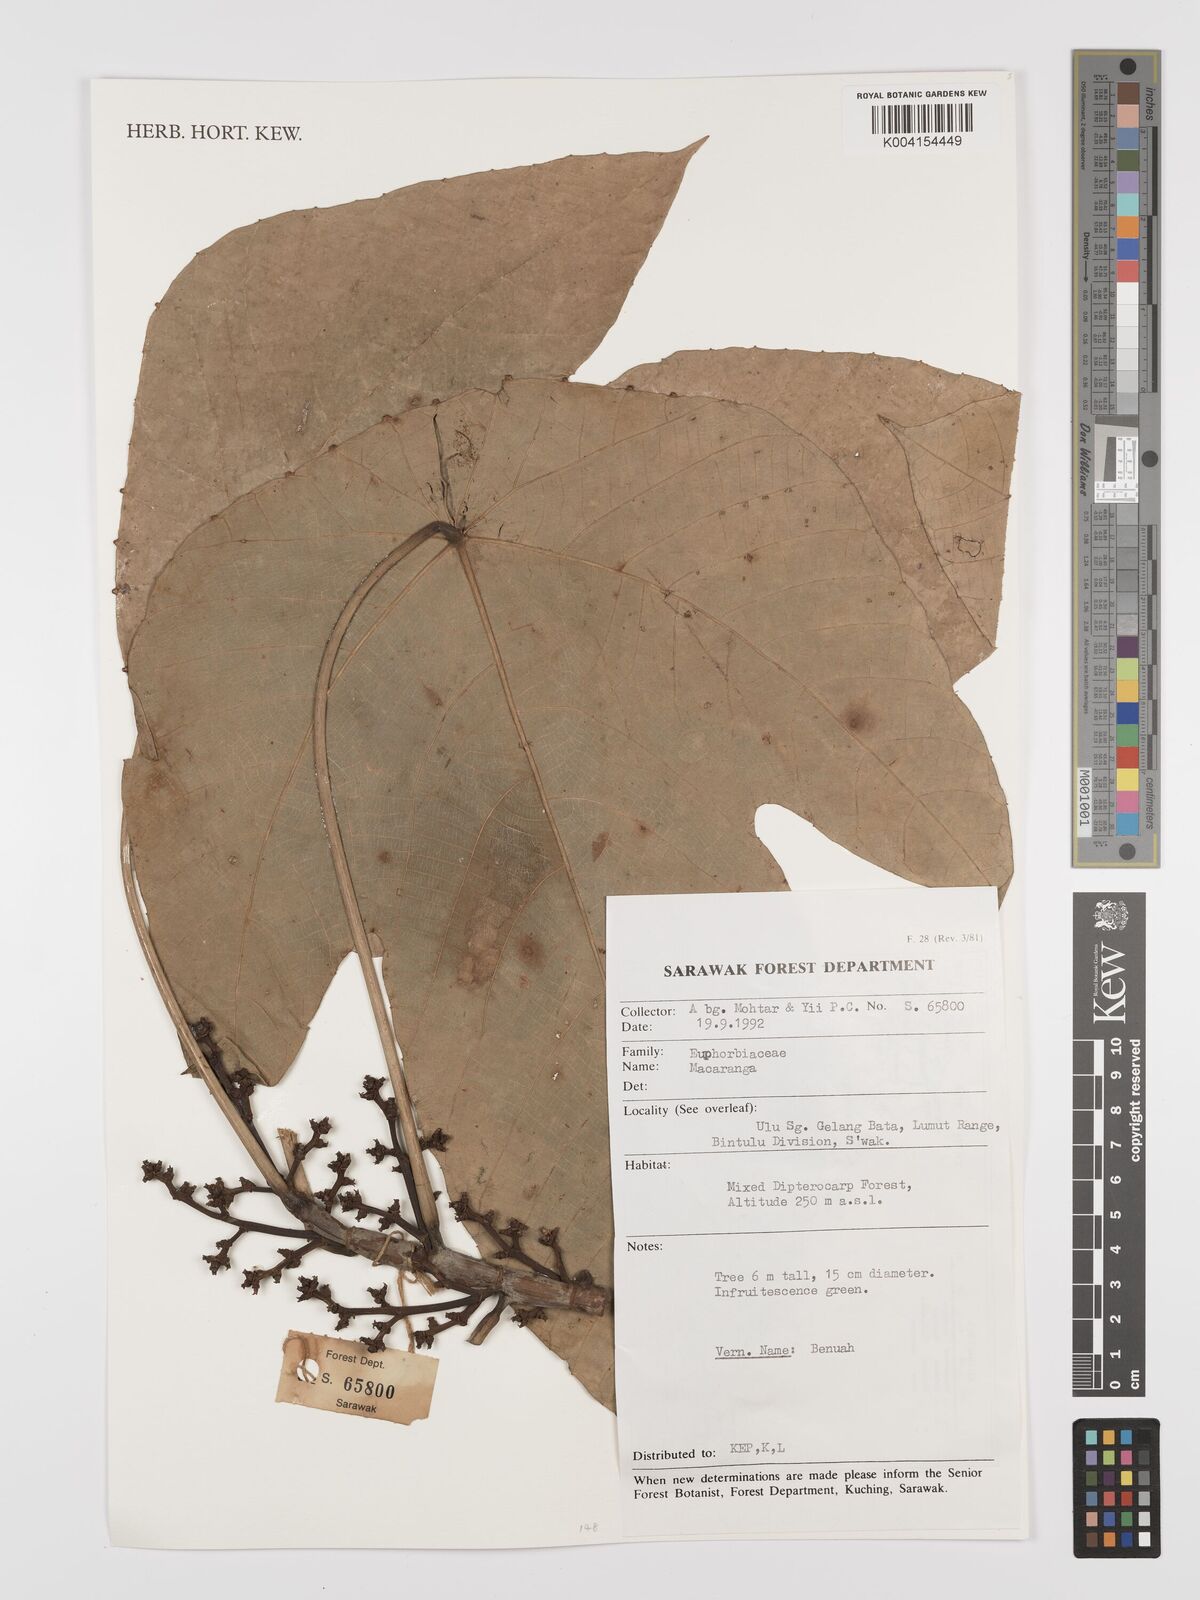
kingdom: Plantae
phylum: Tracheophyta
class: Magnoliopsida
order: Malpighiales
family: Euphorbiaceae
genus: Macaranga
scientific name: Macaranga
